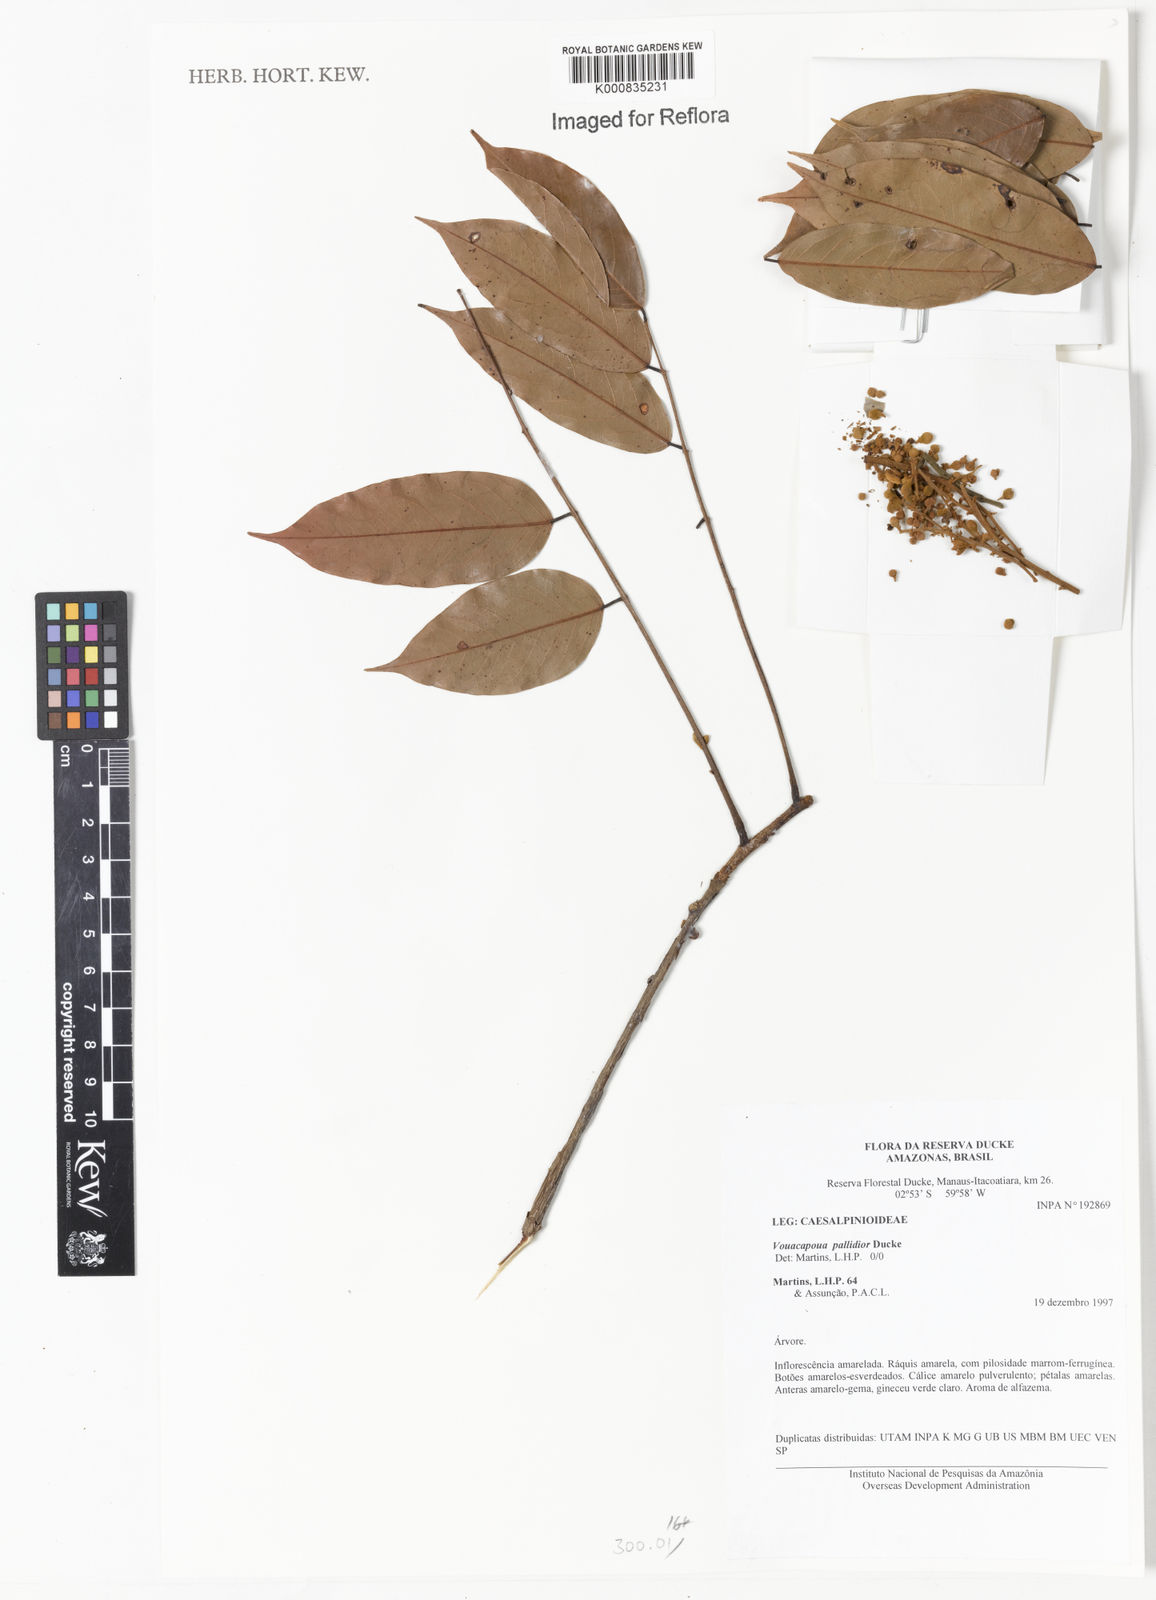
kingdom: Plantae
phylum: Tracheophyta
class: Magnoliopsida
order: Fabales
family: Fabaceae
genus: Vouacapoua
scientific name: Vouacapoua pallidior
